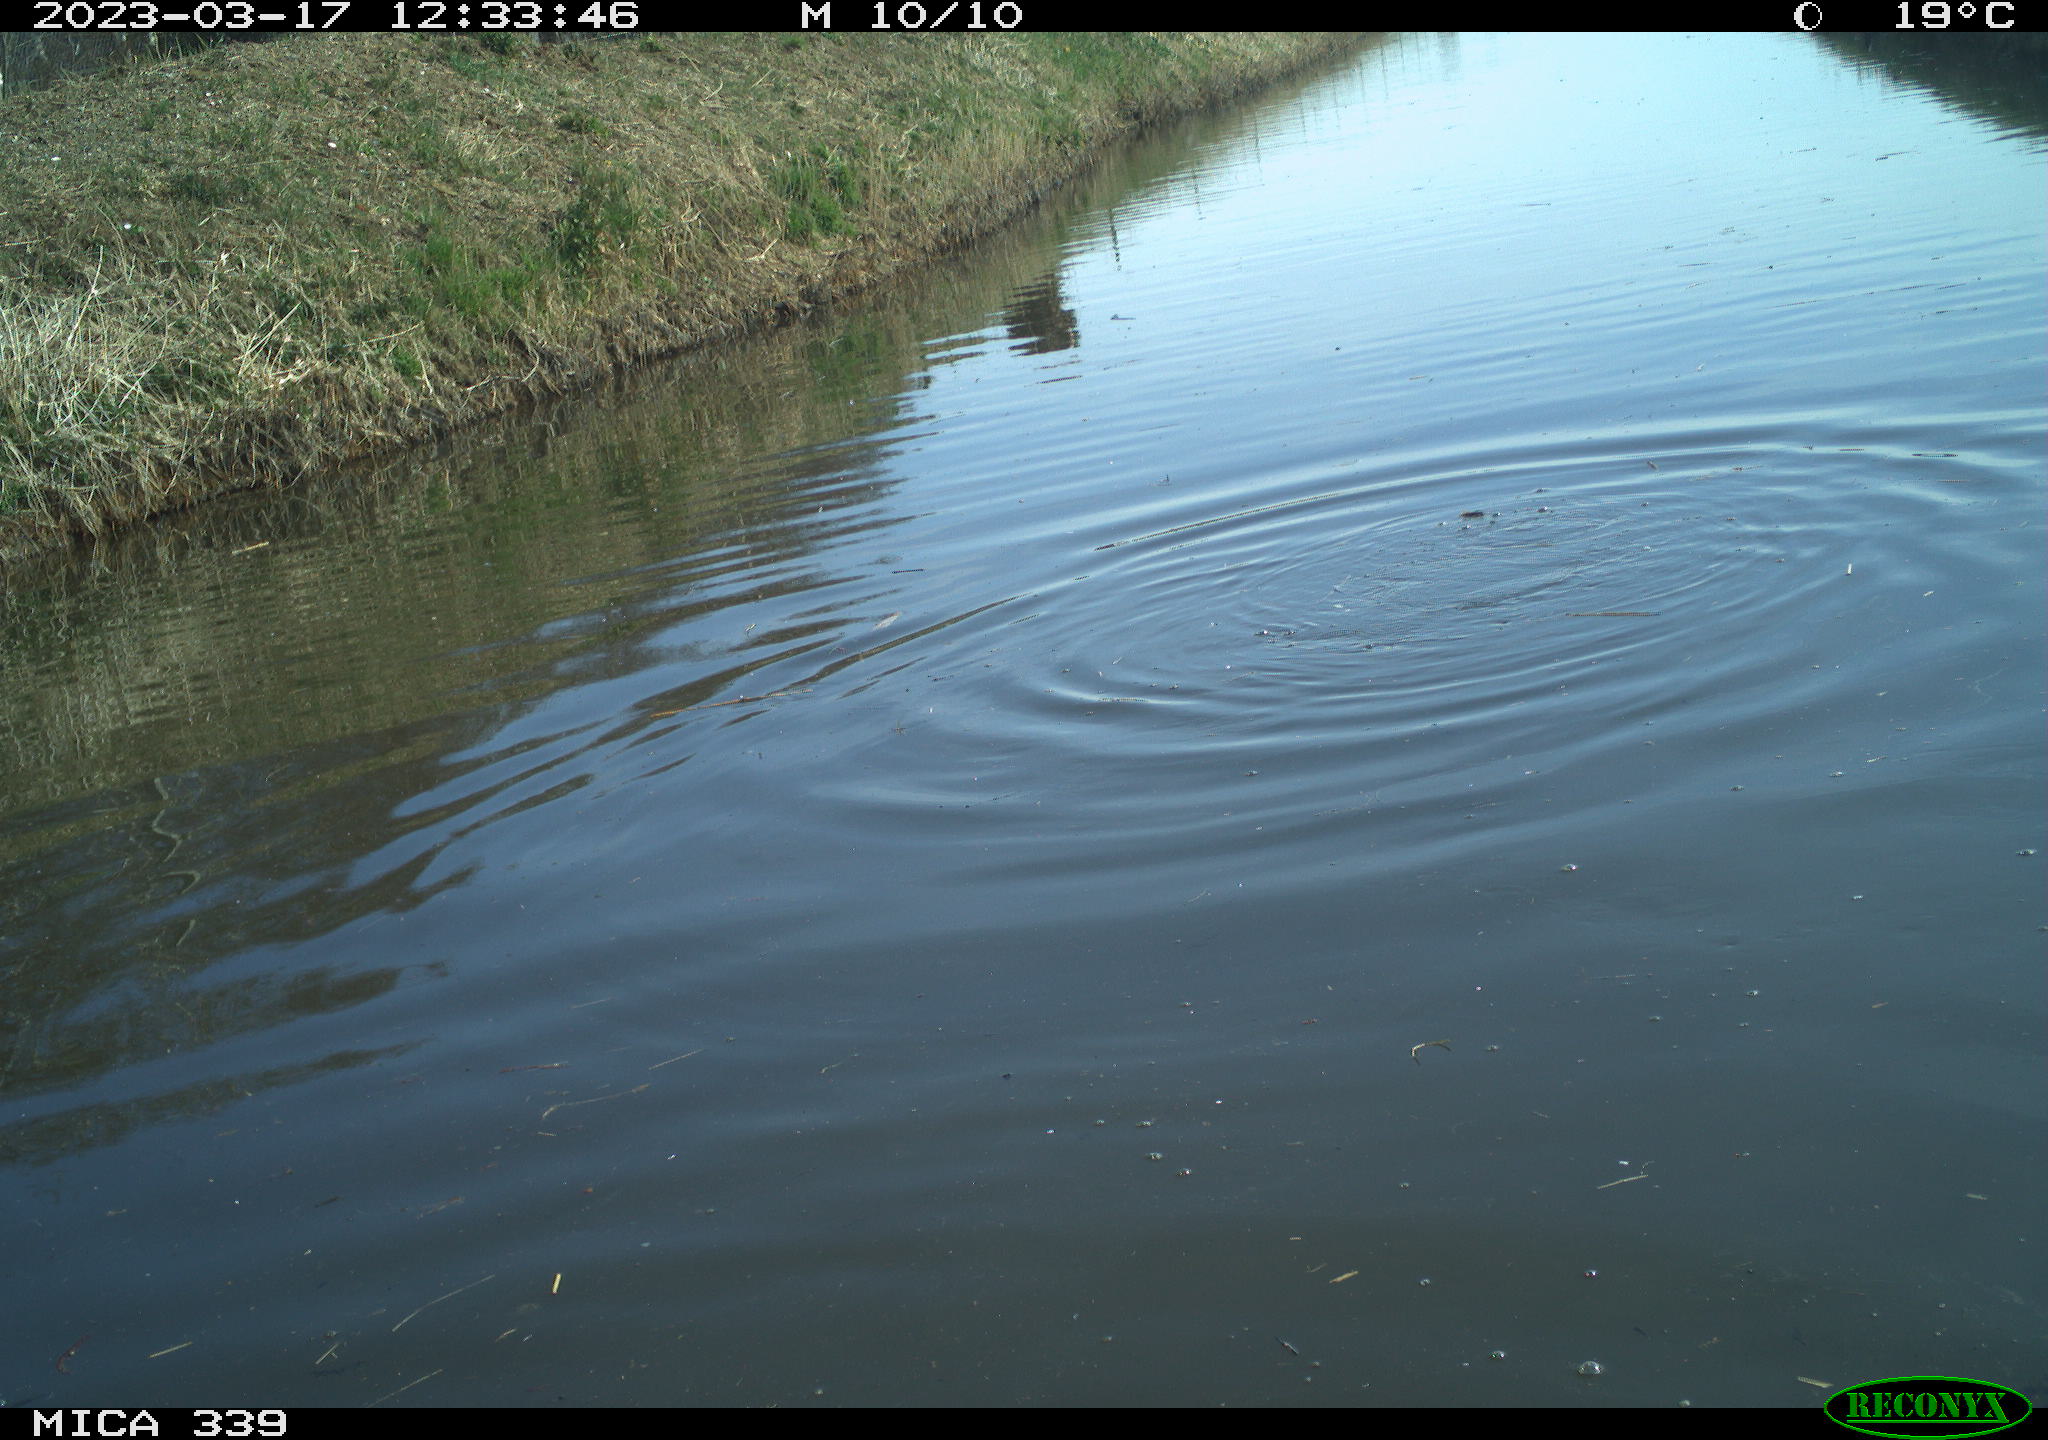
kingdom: Animalia
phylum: Chordata
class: Aves
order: Suliformes
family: Phalacrocoracidae
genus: Phalacrocorax
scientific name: Phalacrocorax carbo
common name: Great cormorant
